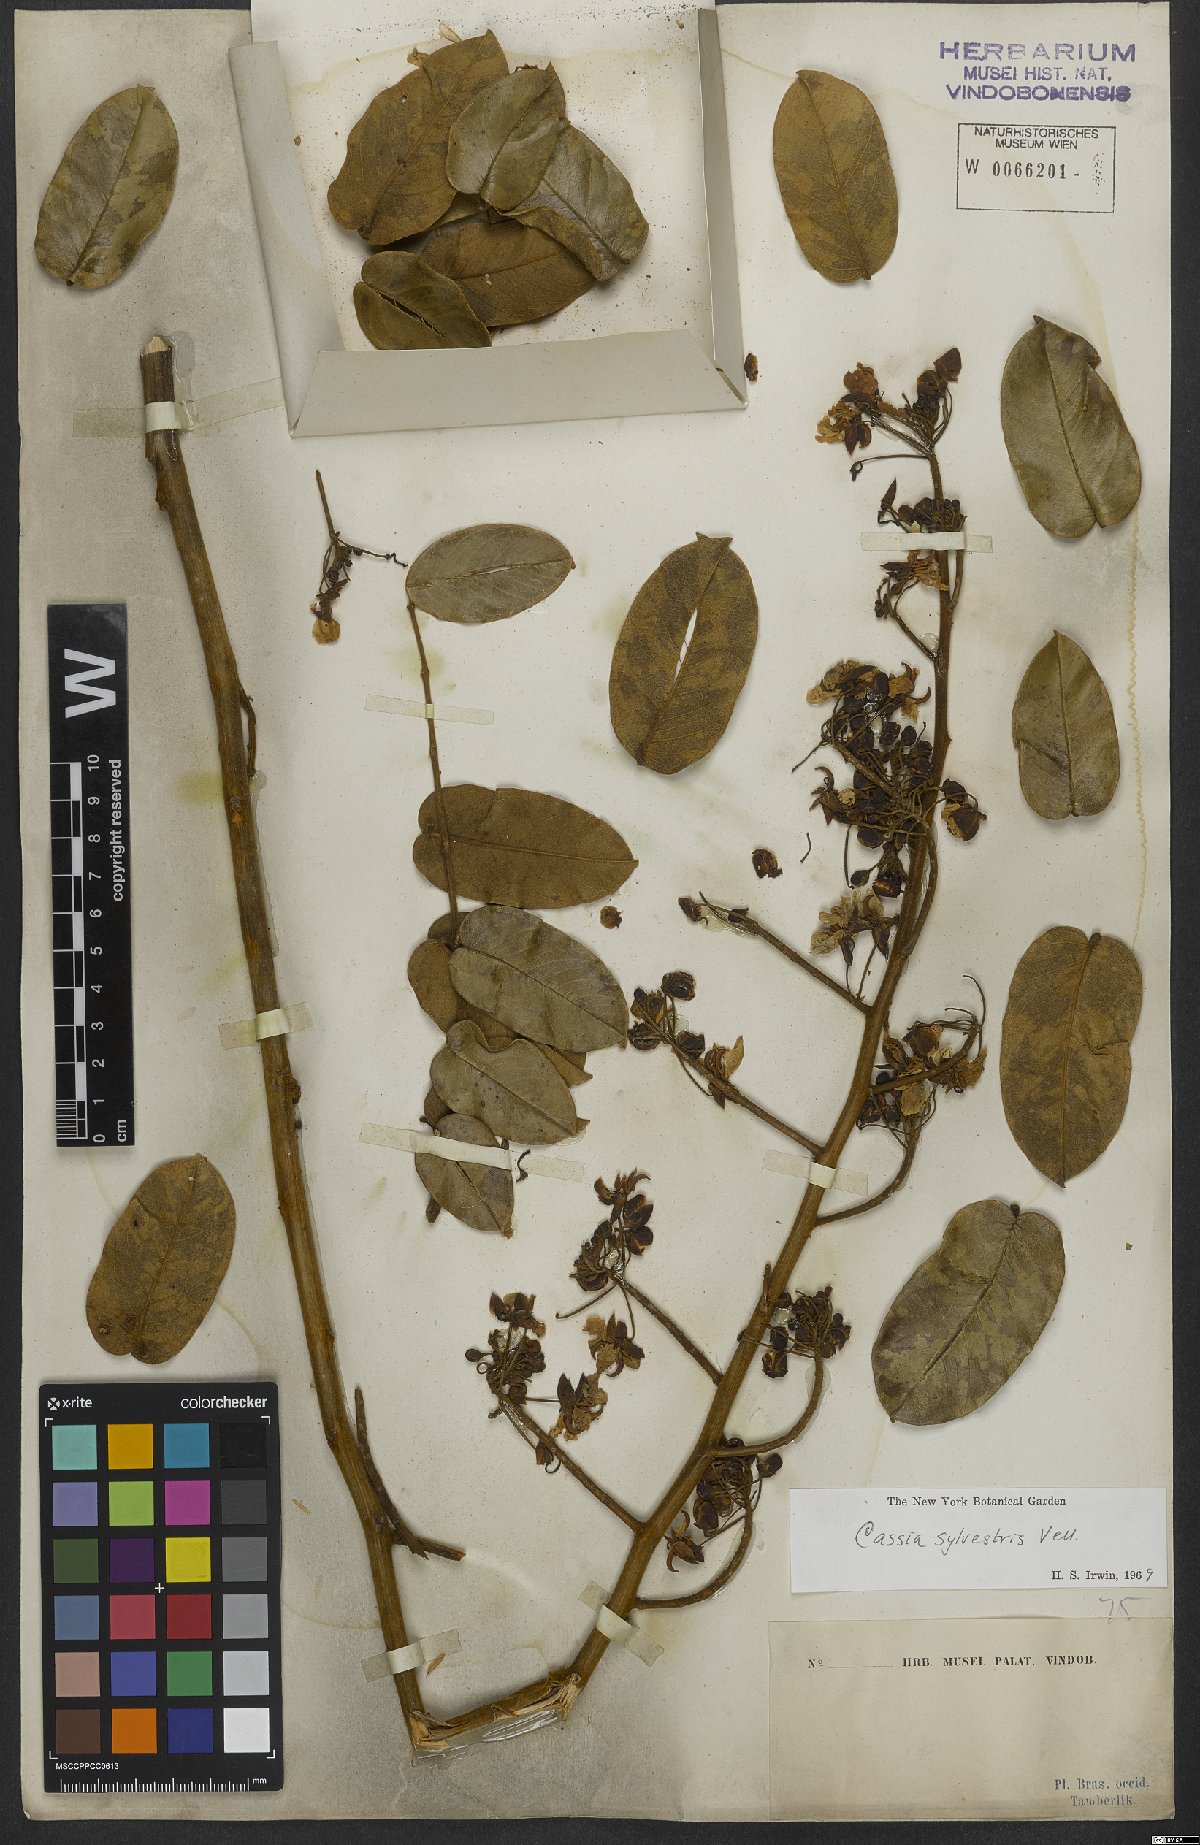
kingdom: Plantae
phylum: Tracheophyta
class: Magnoliopsida
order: Fabales
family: Fabaceae
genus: Senna
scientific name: Senna silvestris
